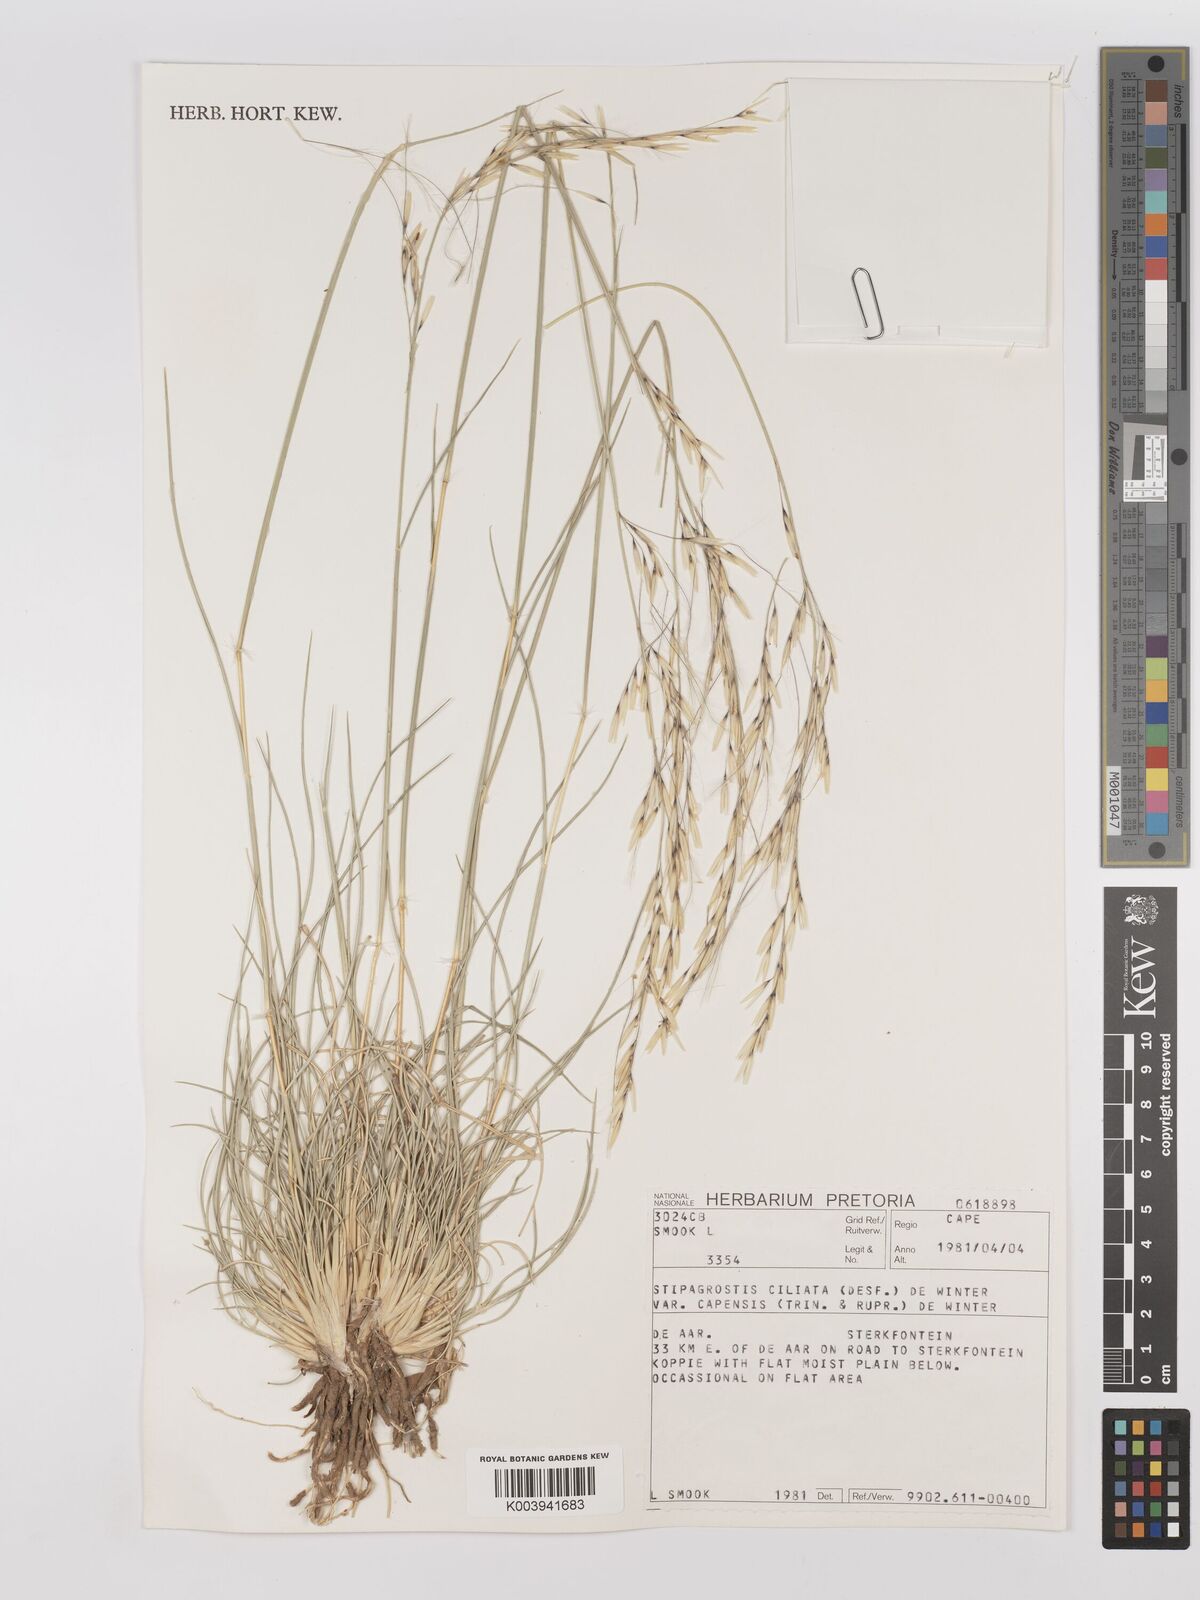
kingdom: Plantae
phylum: Tracheophyta
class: Liliopsida
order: Poales
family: Poaceae
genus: Stipagrostis
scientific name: Stipagrostis ciliata
